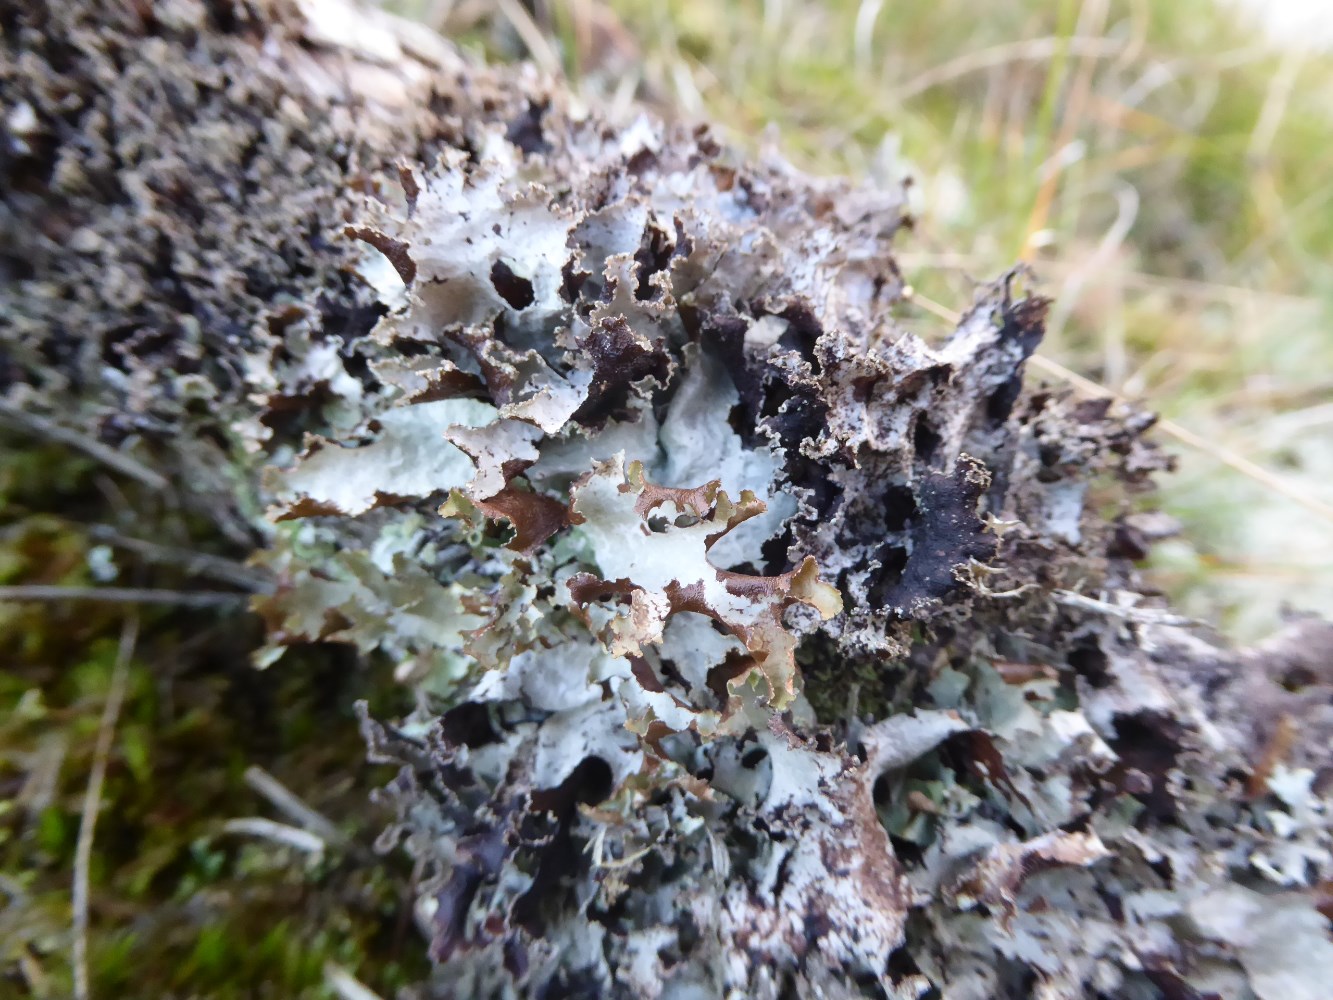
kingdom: Fungi
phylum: Ascomycota
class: Lecanoromycetes
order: Lecanorales
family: Parmeliaceae
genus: Platismatia
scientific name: Platismatia glauca
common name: blågrå papirlav
